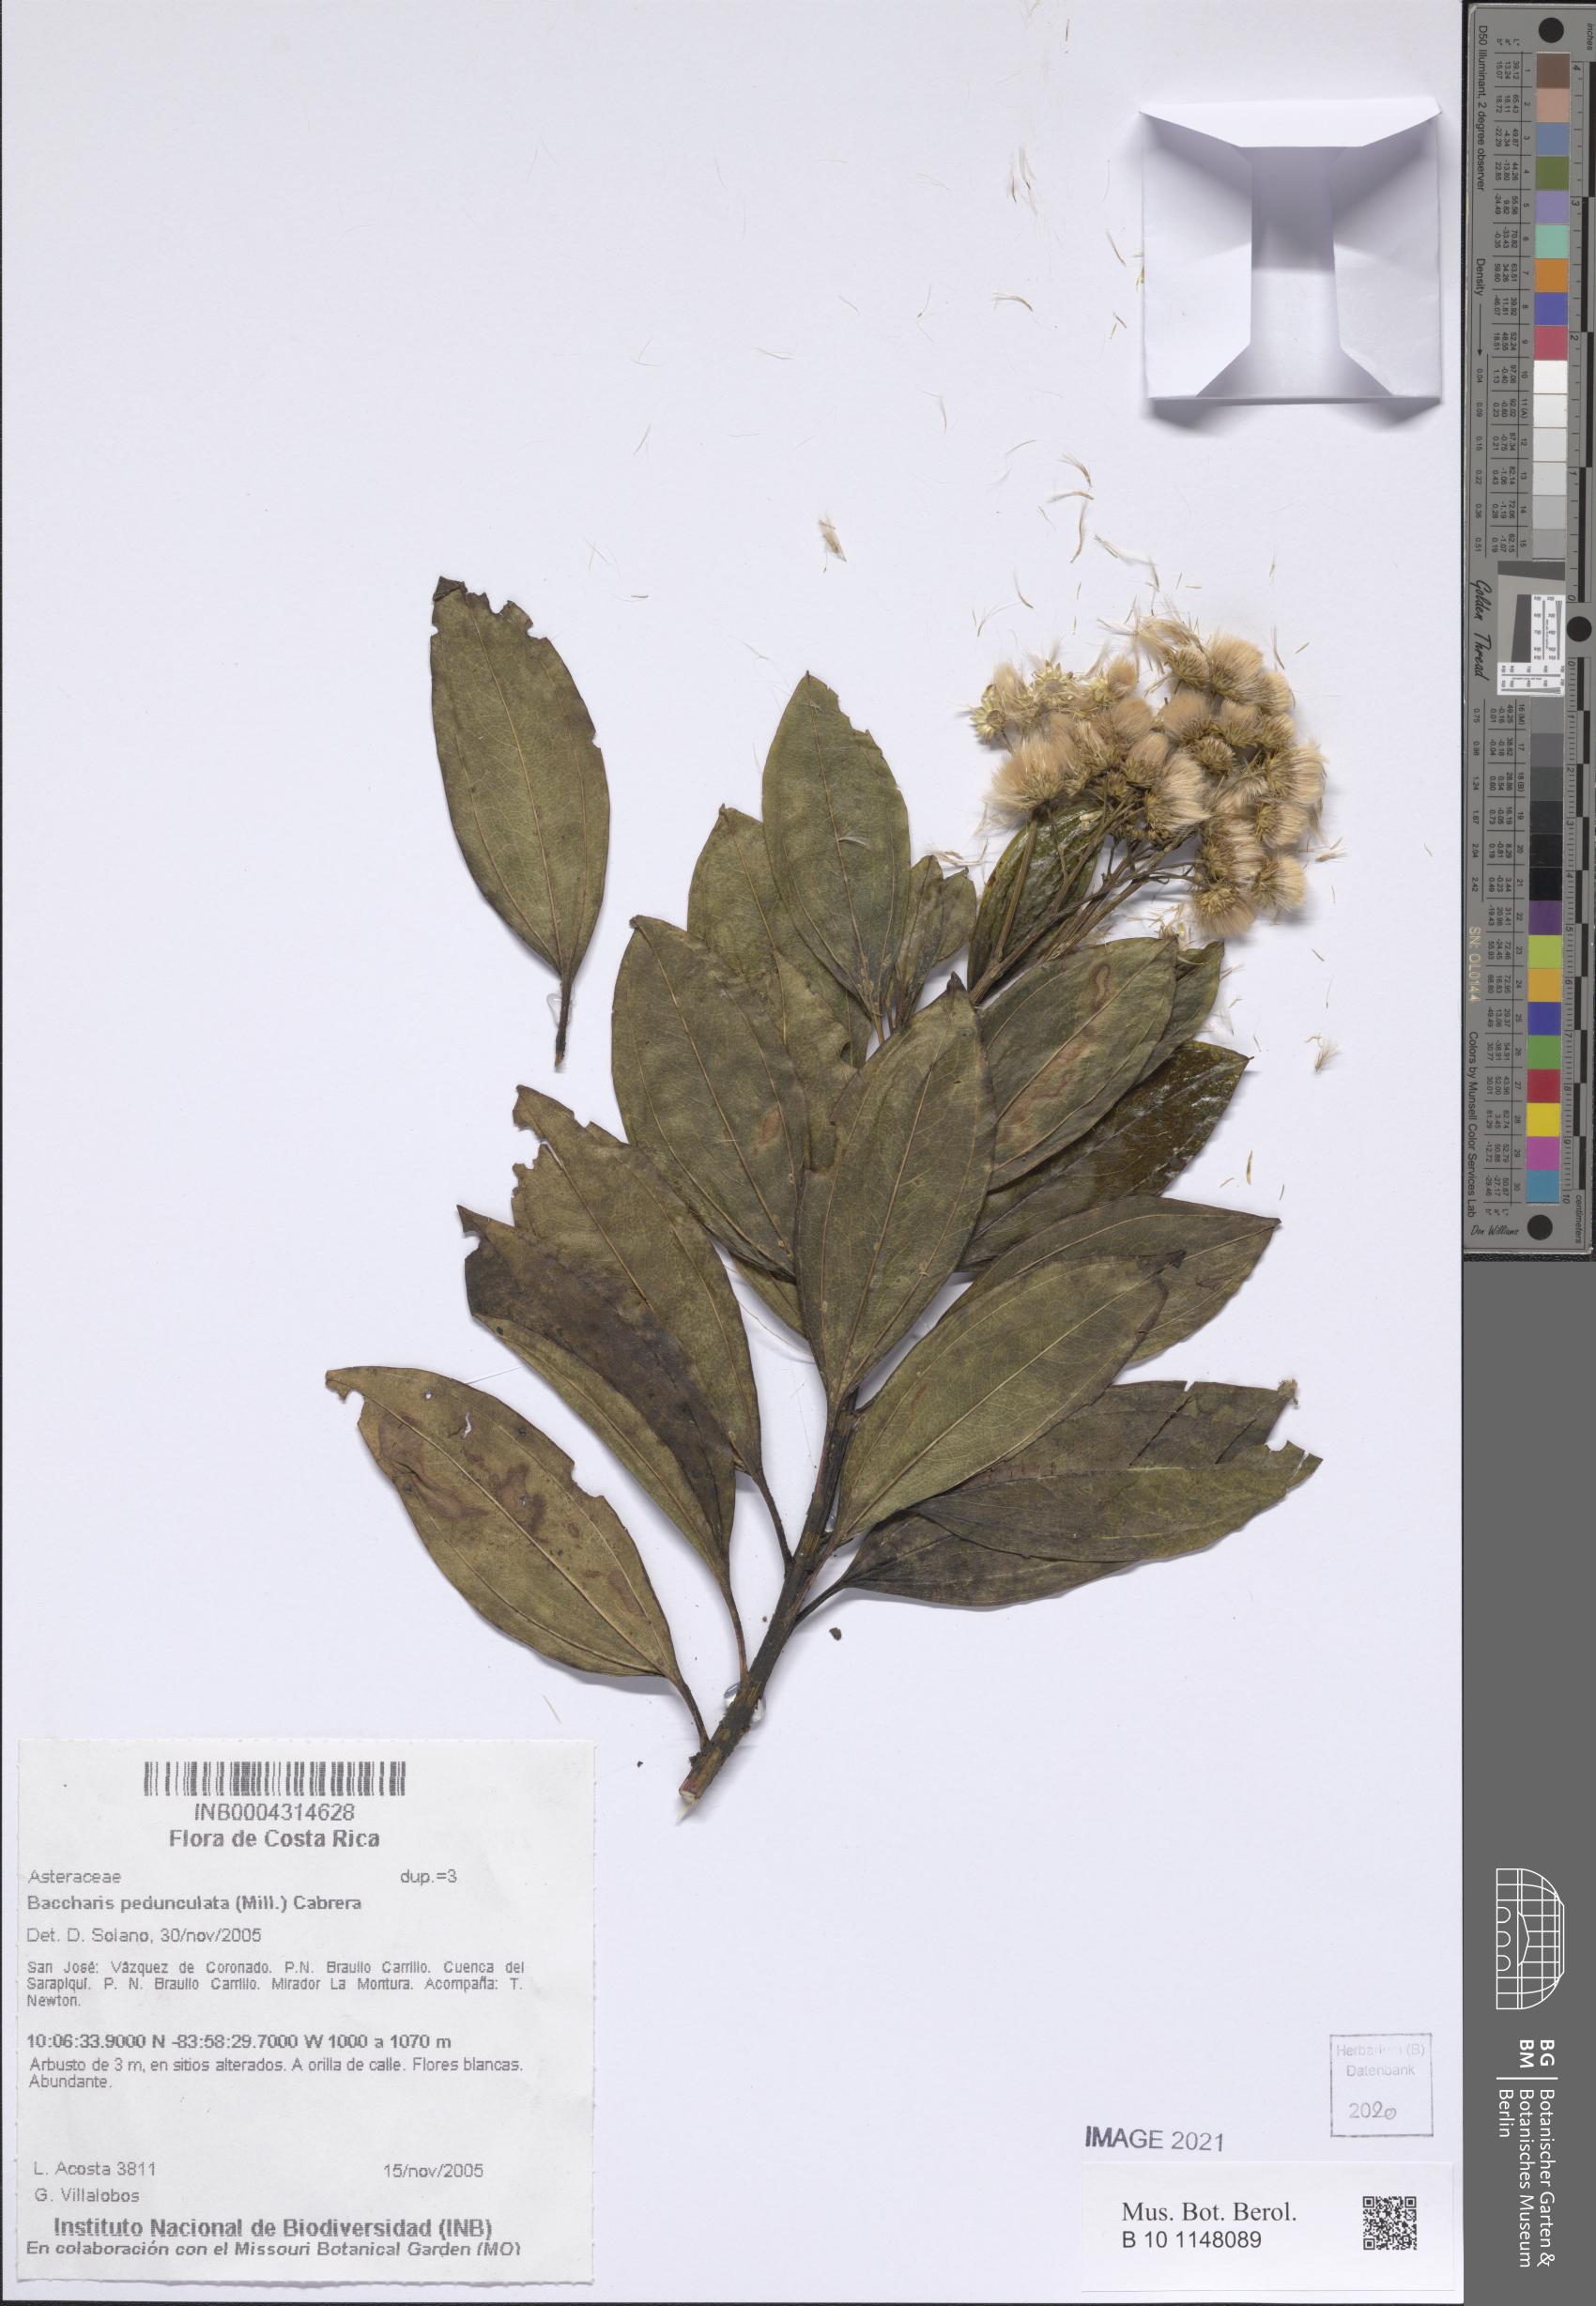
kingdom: Plantae
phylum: Tracheophyta
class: Magnoliopsida
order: Asterales
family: Asteraceae
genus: Baccharis
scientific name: Baccharis pedunculata
